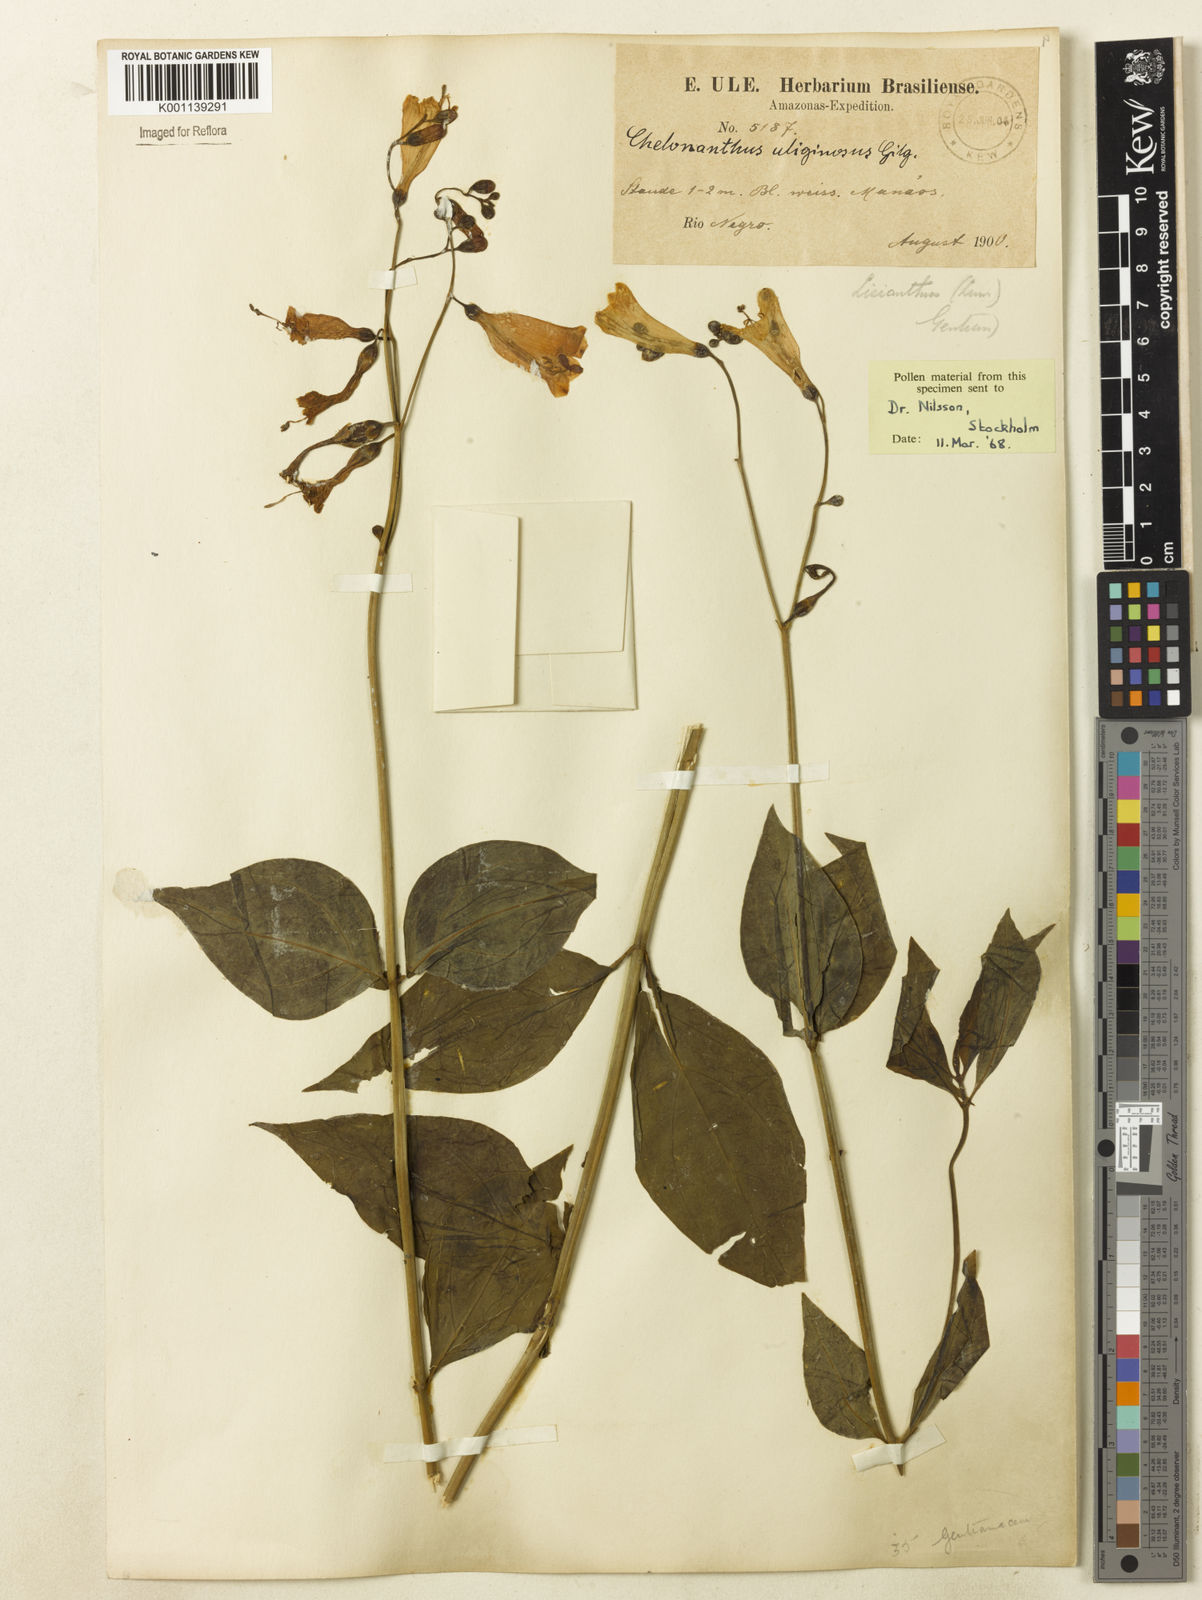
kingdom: Plantae
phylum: Tracheophyta
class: Magnoliopsida
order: Gentianales
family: Gentianaceae
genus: Chelonanthus
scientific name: Chelonanthus purpurascens
